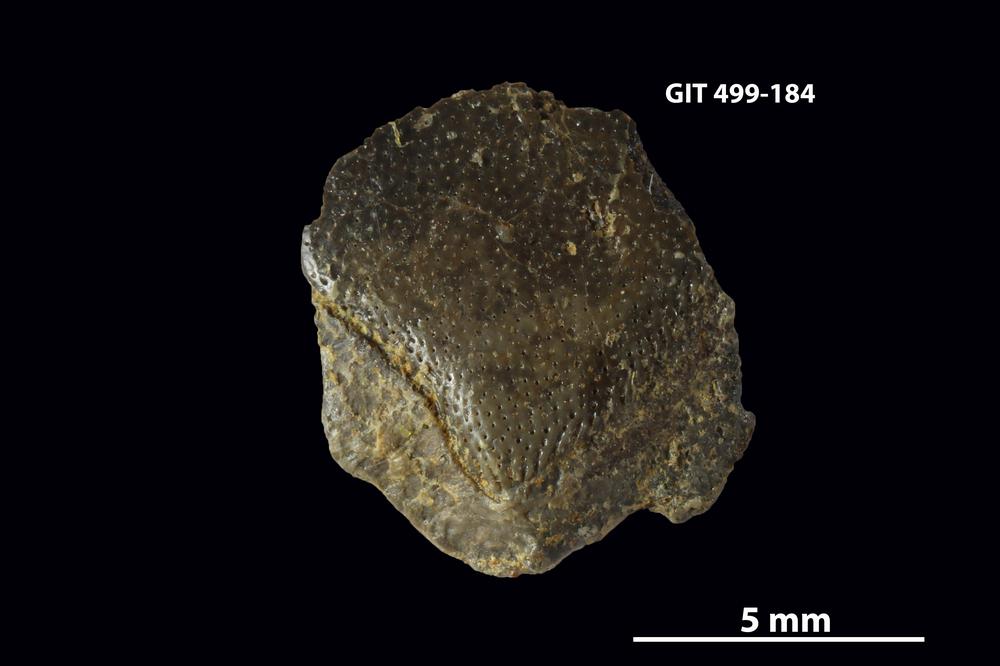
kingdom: Animalia
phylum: Chordata
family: Porolepididae
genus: Porolepis
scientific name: Porolepis
